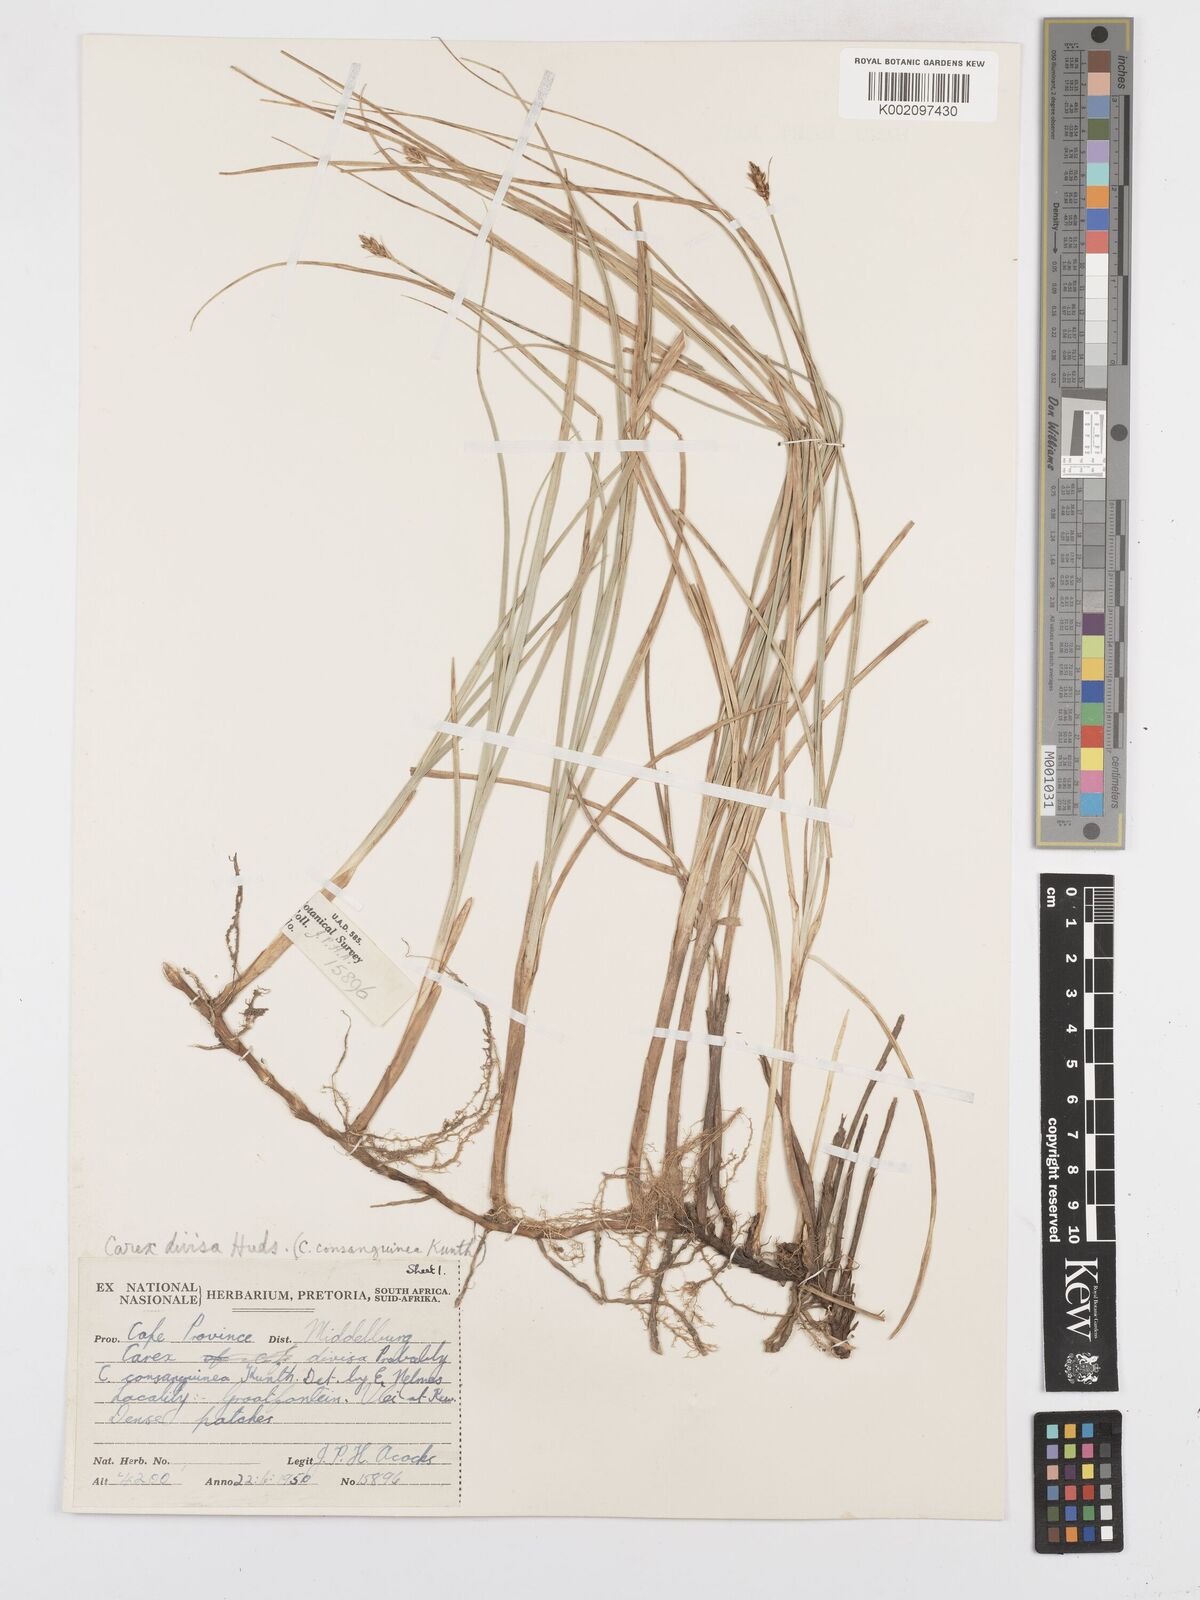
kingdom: Plantae
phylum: Tracheophyta
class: Liliopsida
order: Poales
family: Cyperaceae
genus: Carex
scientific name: Carex divisa
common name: Divided sedge
